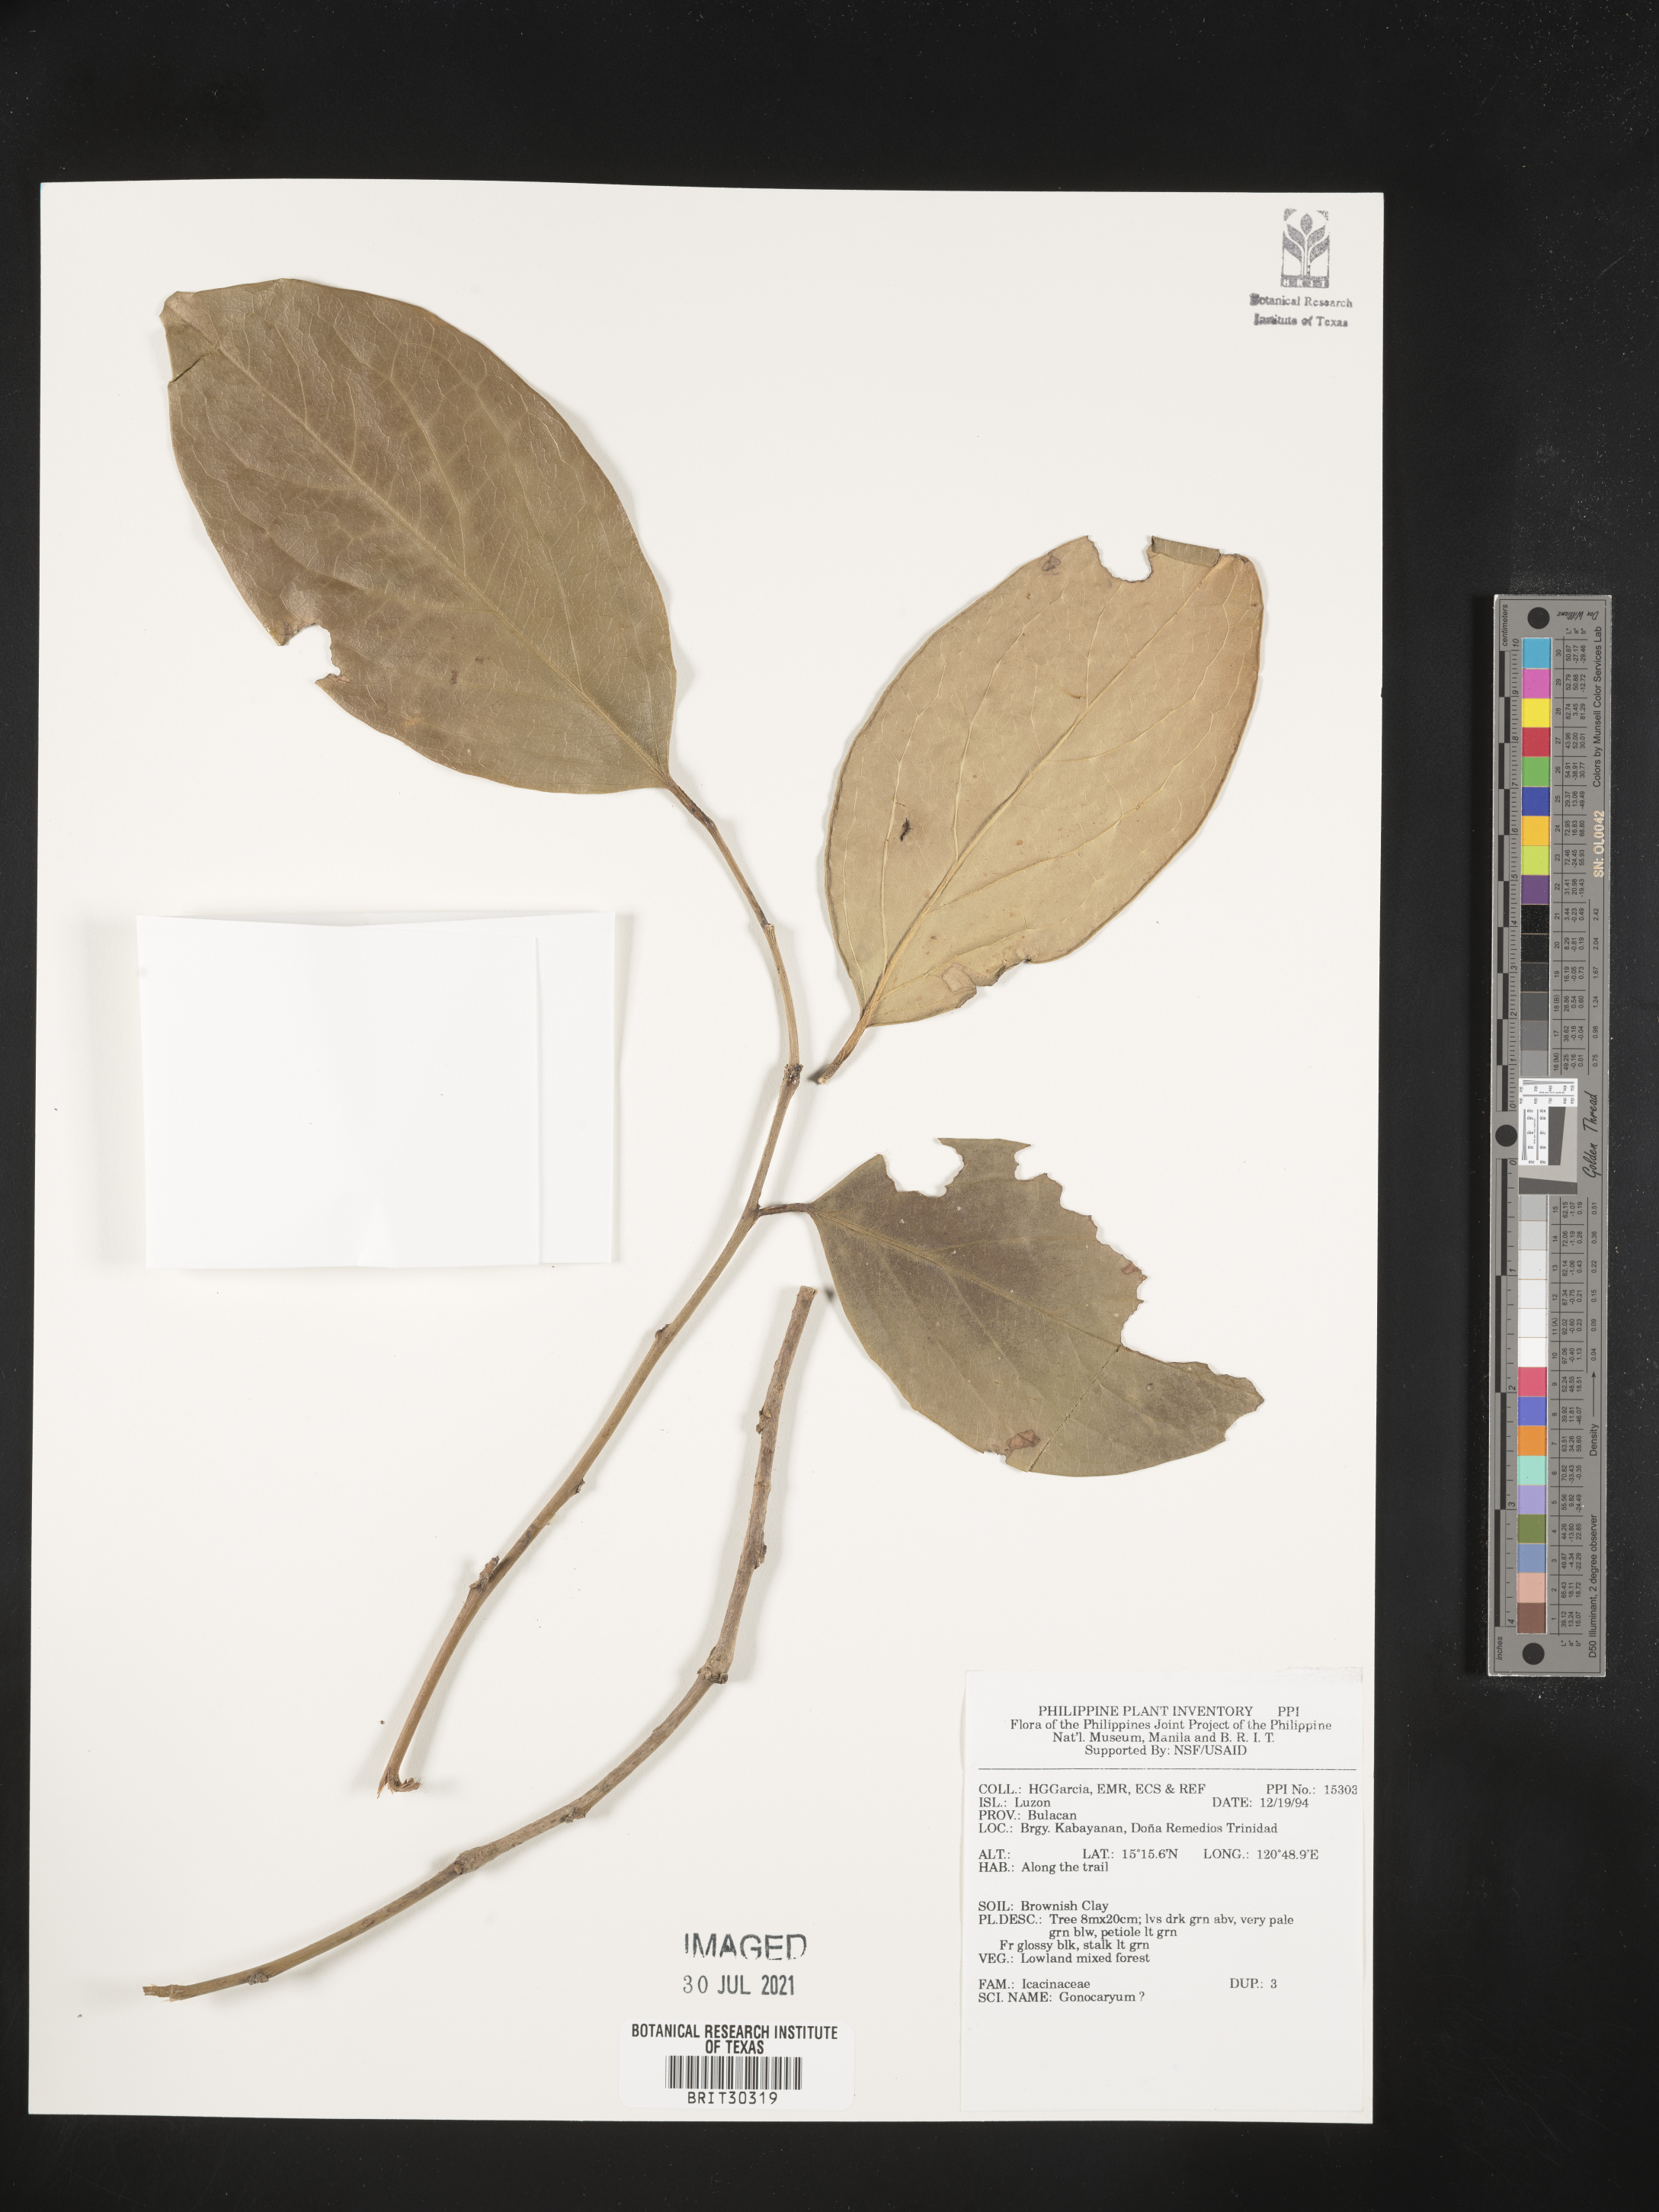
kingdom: Plantae
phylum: Tracheophyta
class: Magnoliopsida
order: Cardiopteridales
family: Cardiopteridaceae
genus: Gonocaryum
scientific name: Gonocaryum
